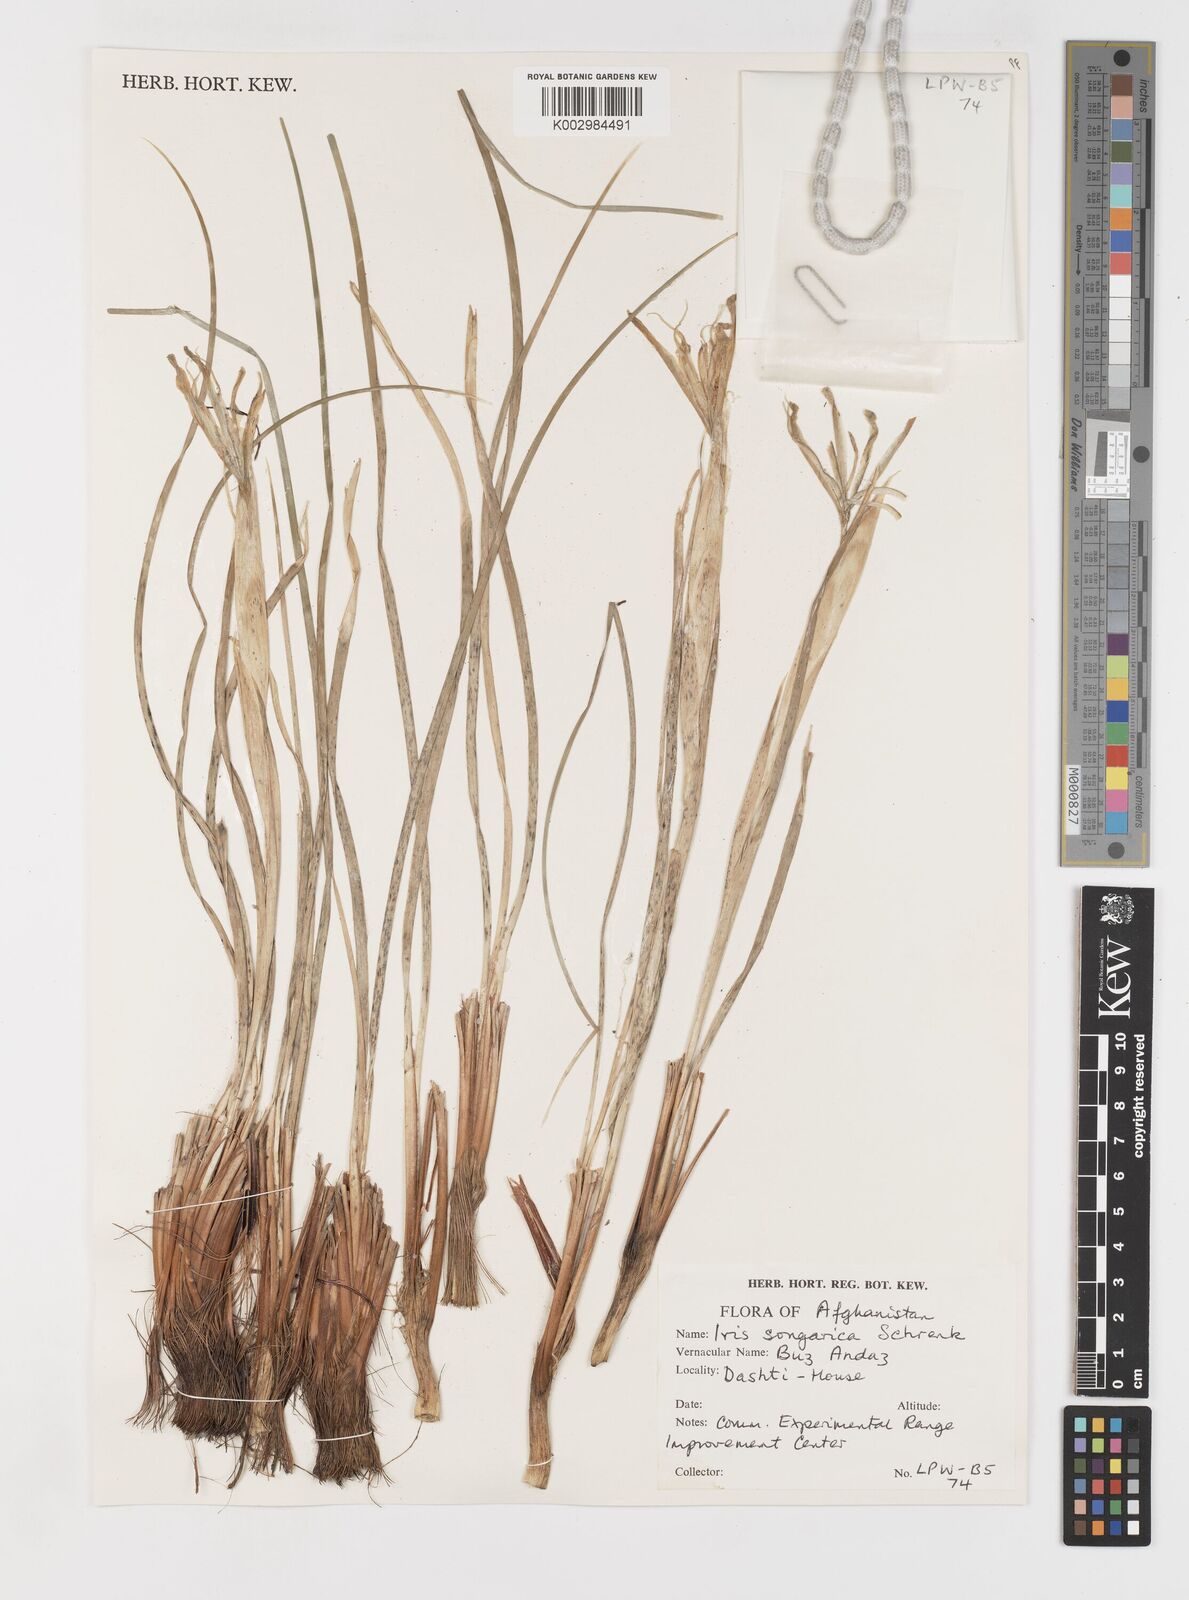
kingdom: Plantae
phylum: Tracheophyta
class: Liliopsida
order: Asparagales
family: Iridaceae
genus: Iris
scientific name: Iris songarica
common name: Songar iris
